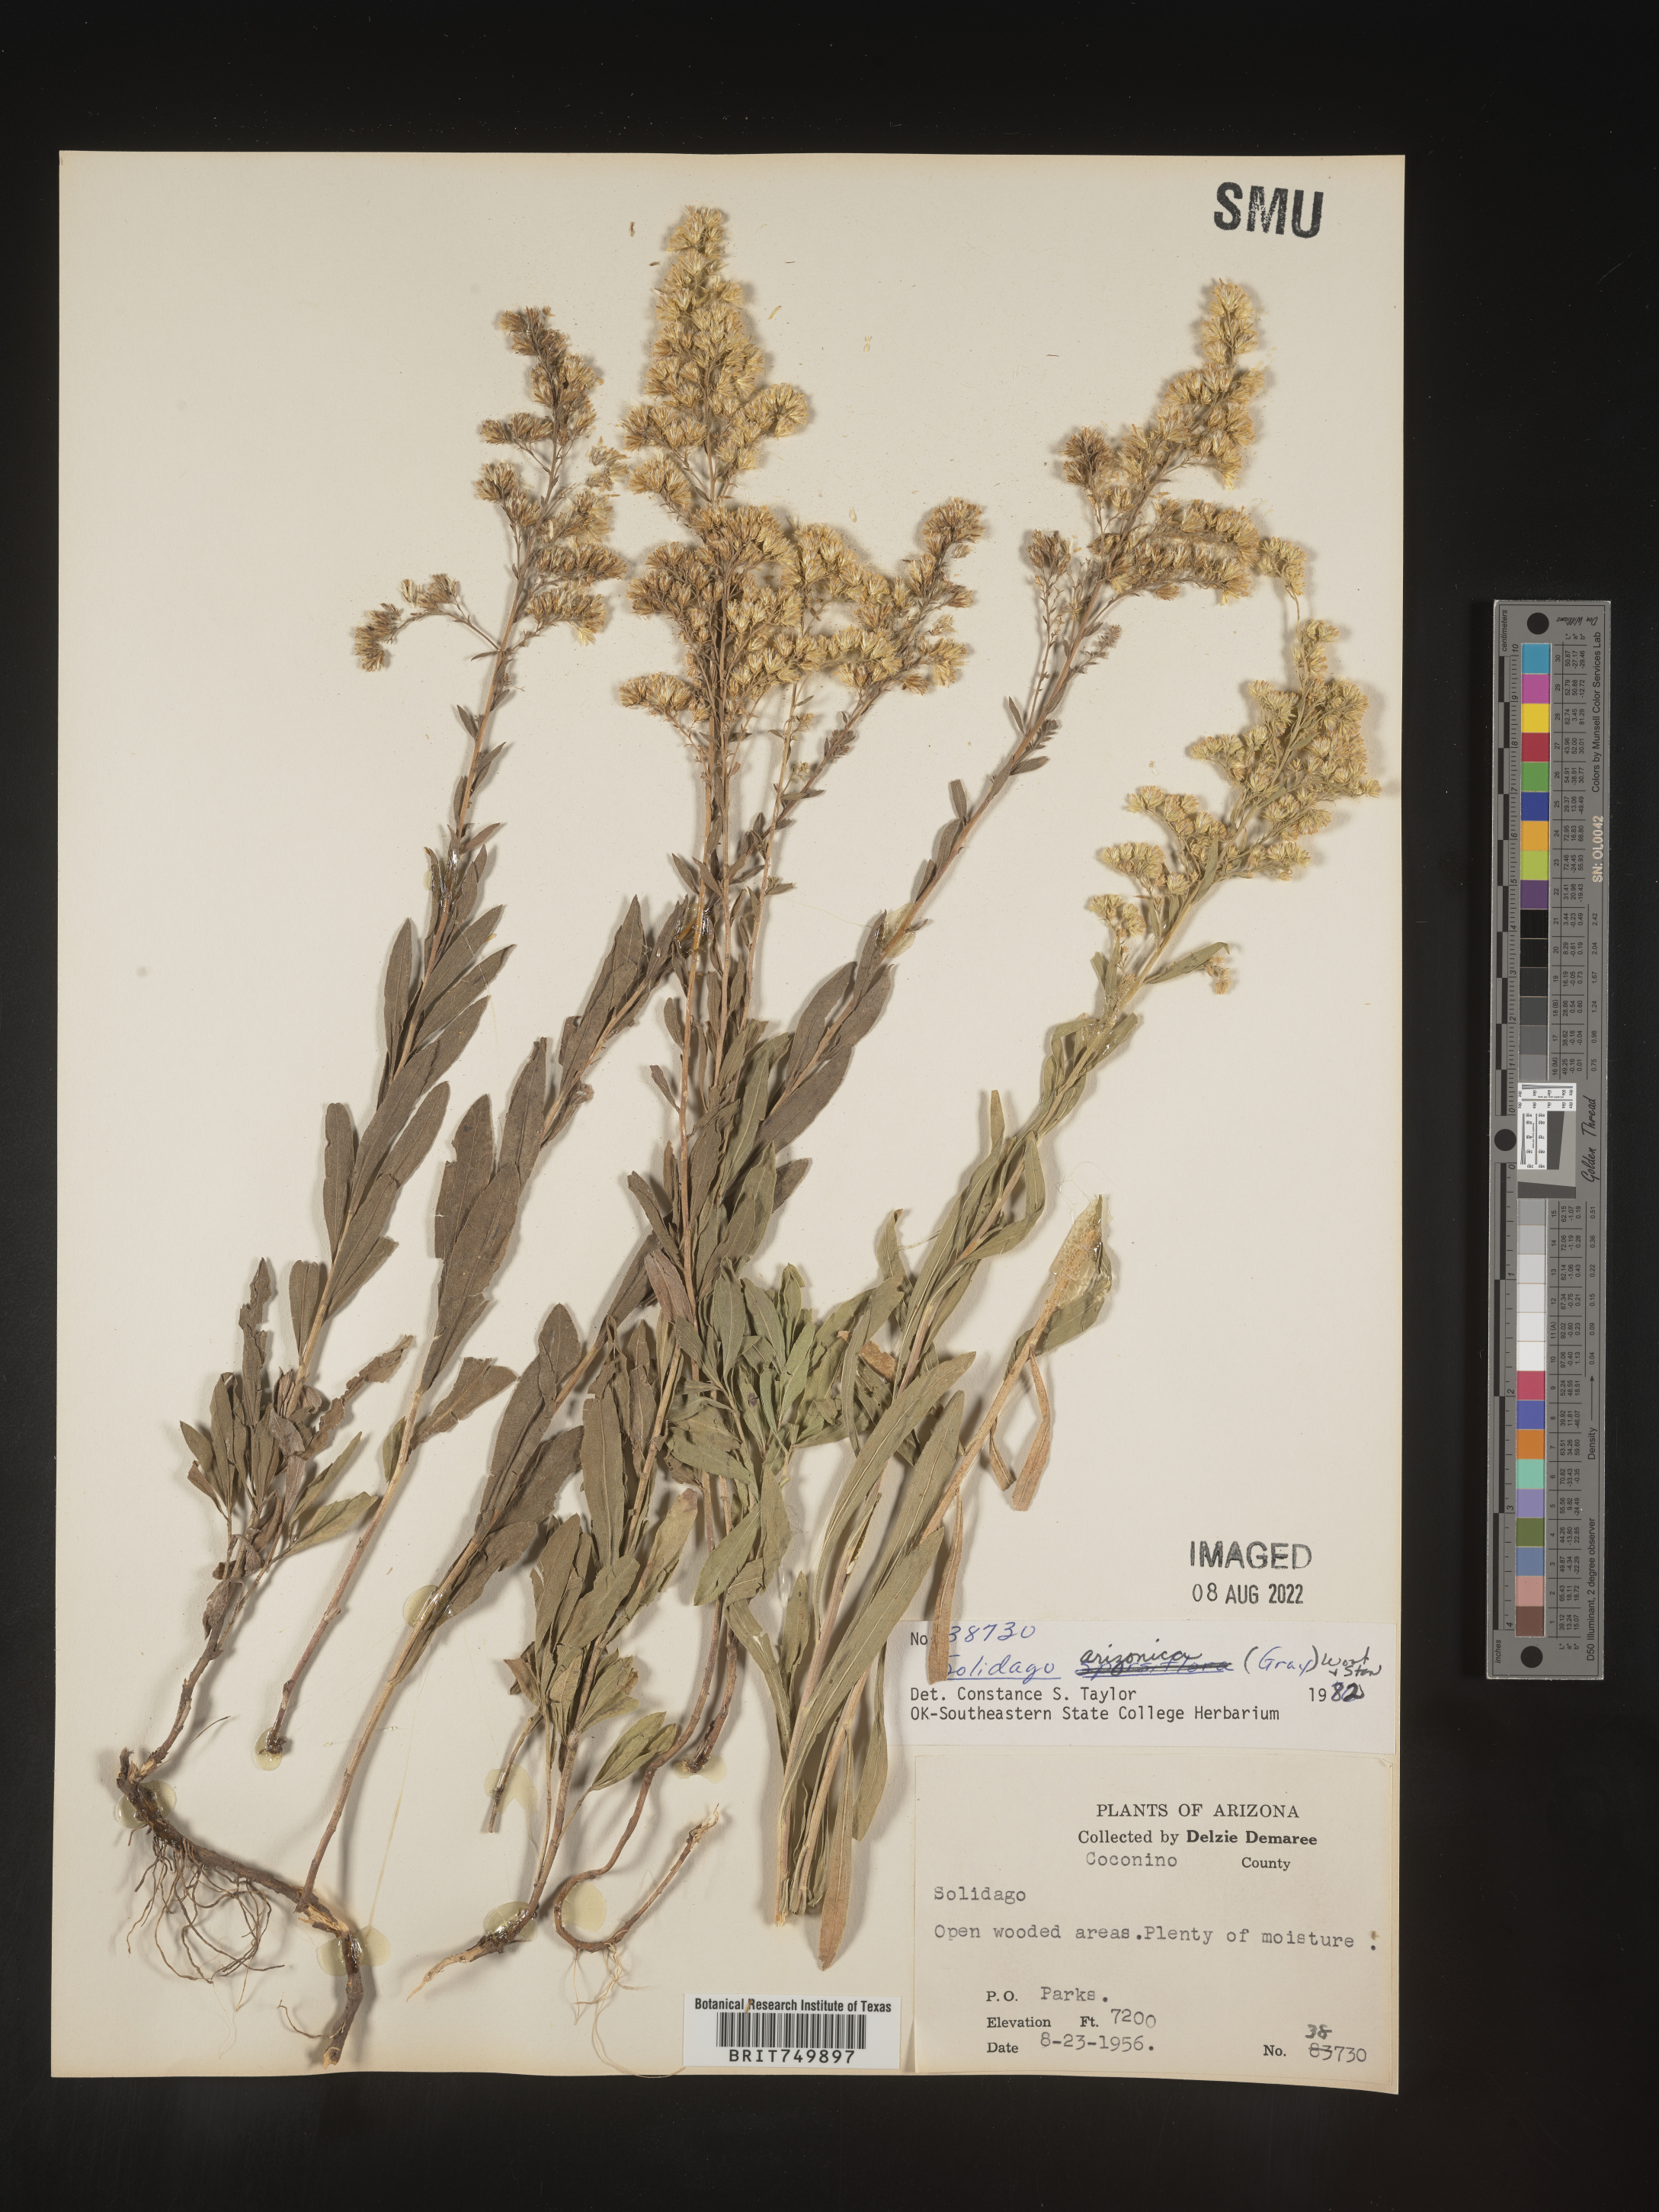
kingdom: Plantae
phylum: Tracheophyta
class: Magnoliopsida
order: Asterales
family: Asteraceae
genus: Solidago
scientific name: Solidago velutina
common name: Three-nerve goldenrod
